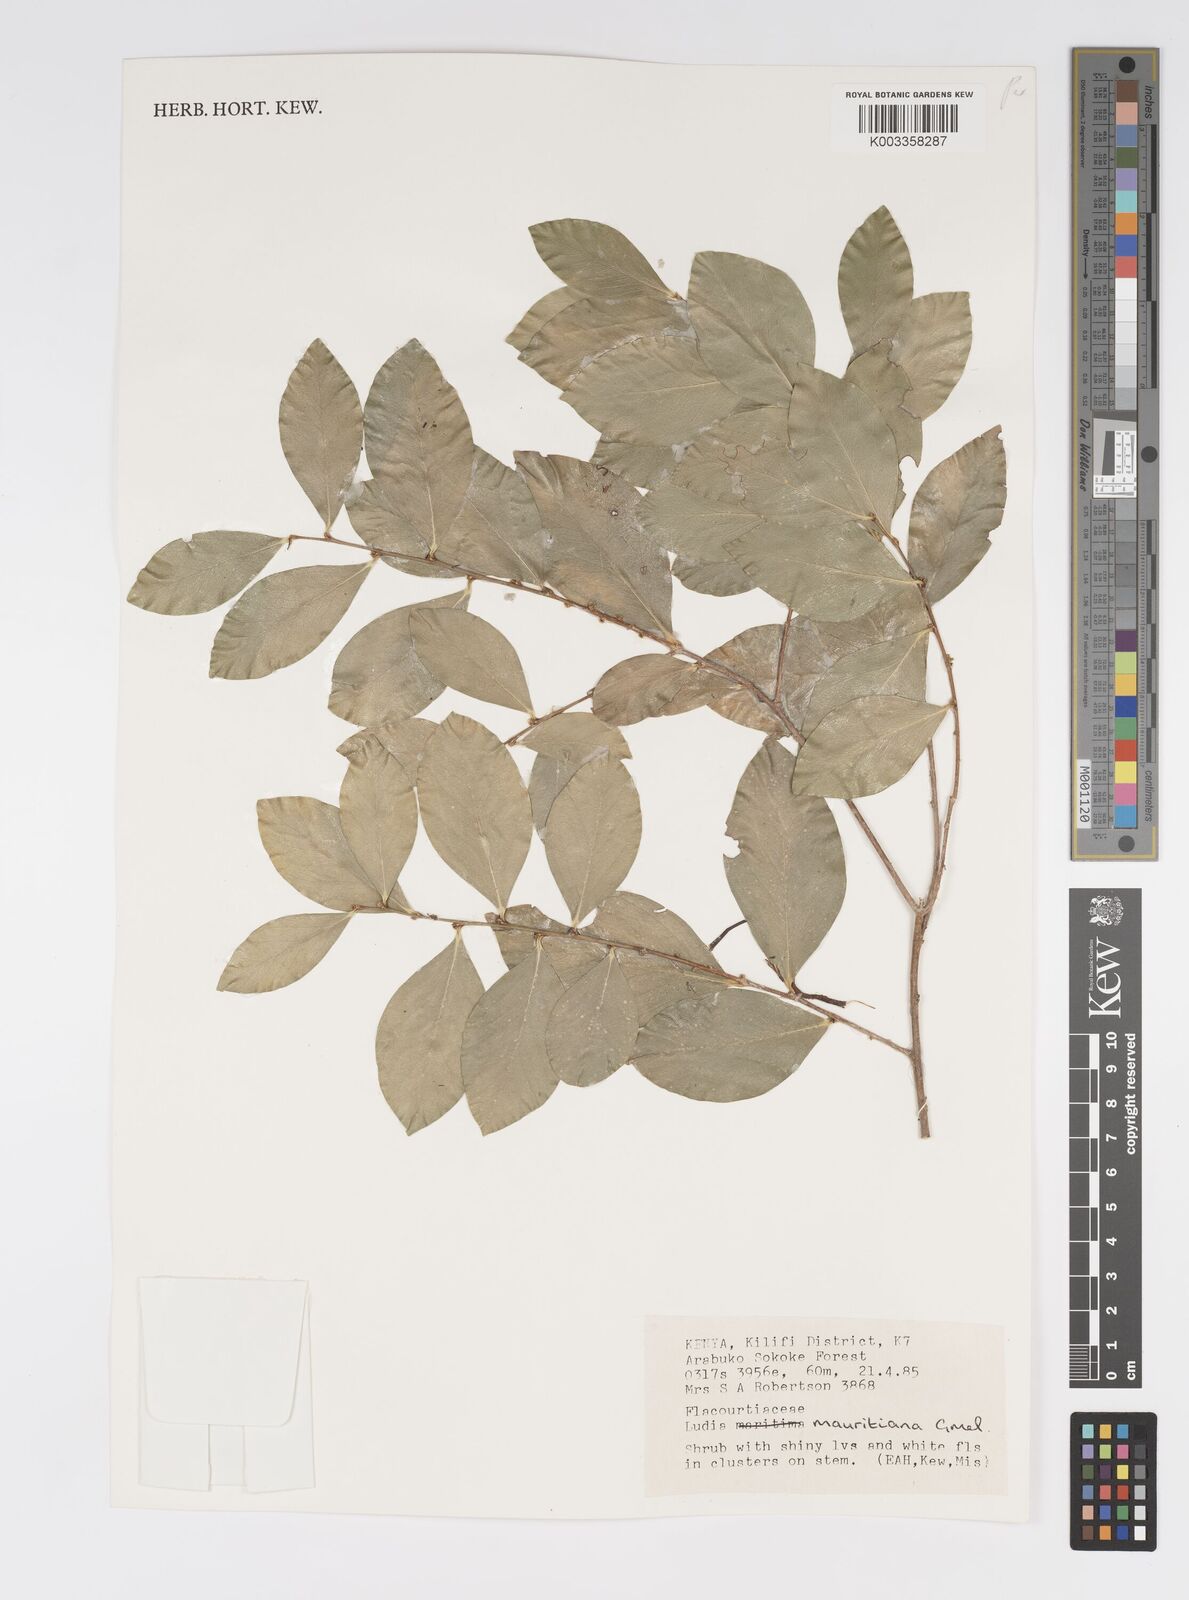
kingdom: Plantae
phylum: Tracheophyta
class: Magnoliopsida
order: Malpighiales
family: Salicaceae
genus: Ludia
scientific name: Ludia mauritiana
